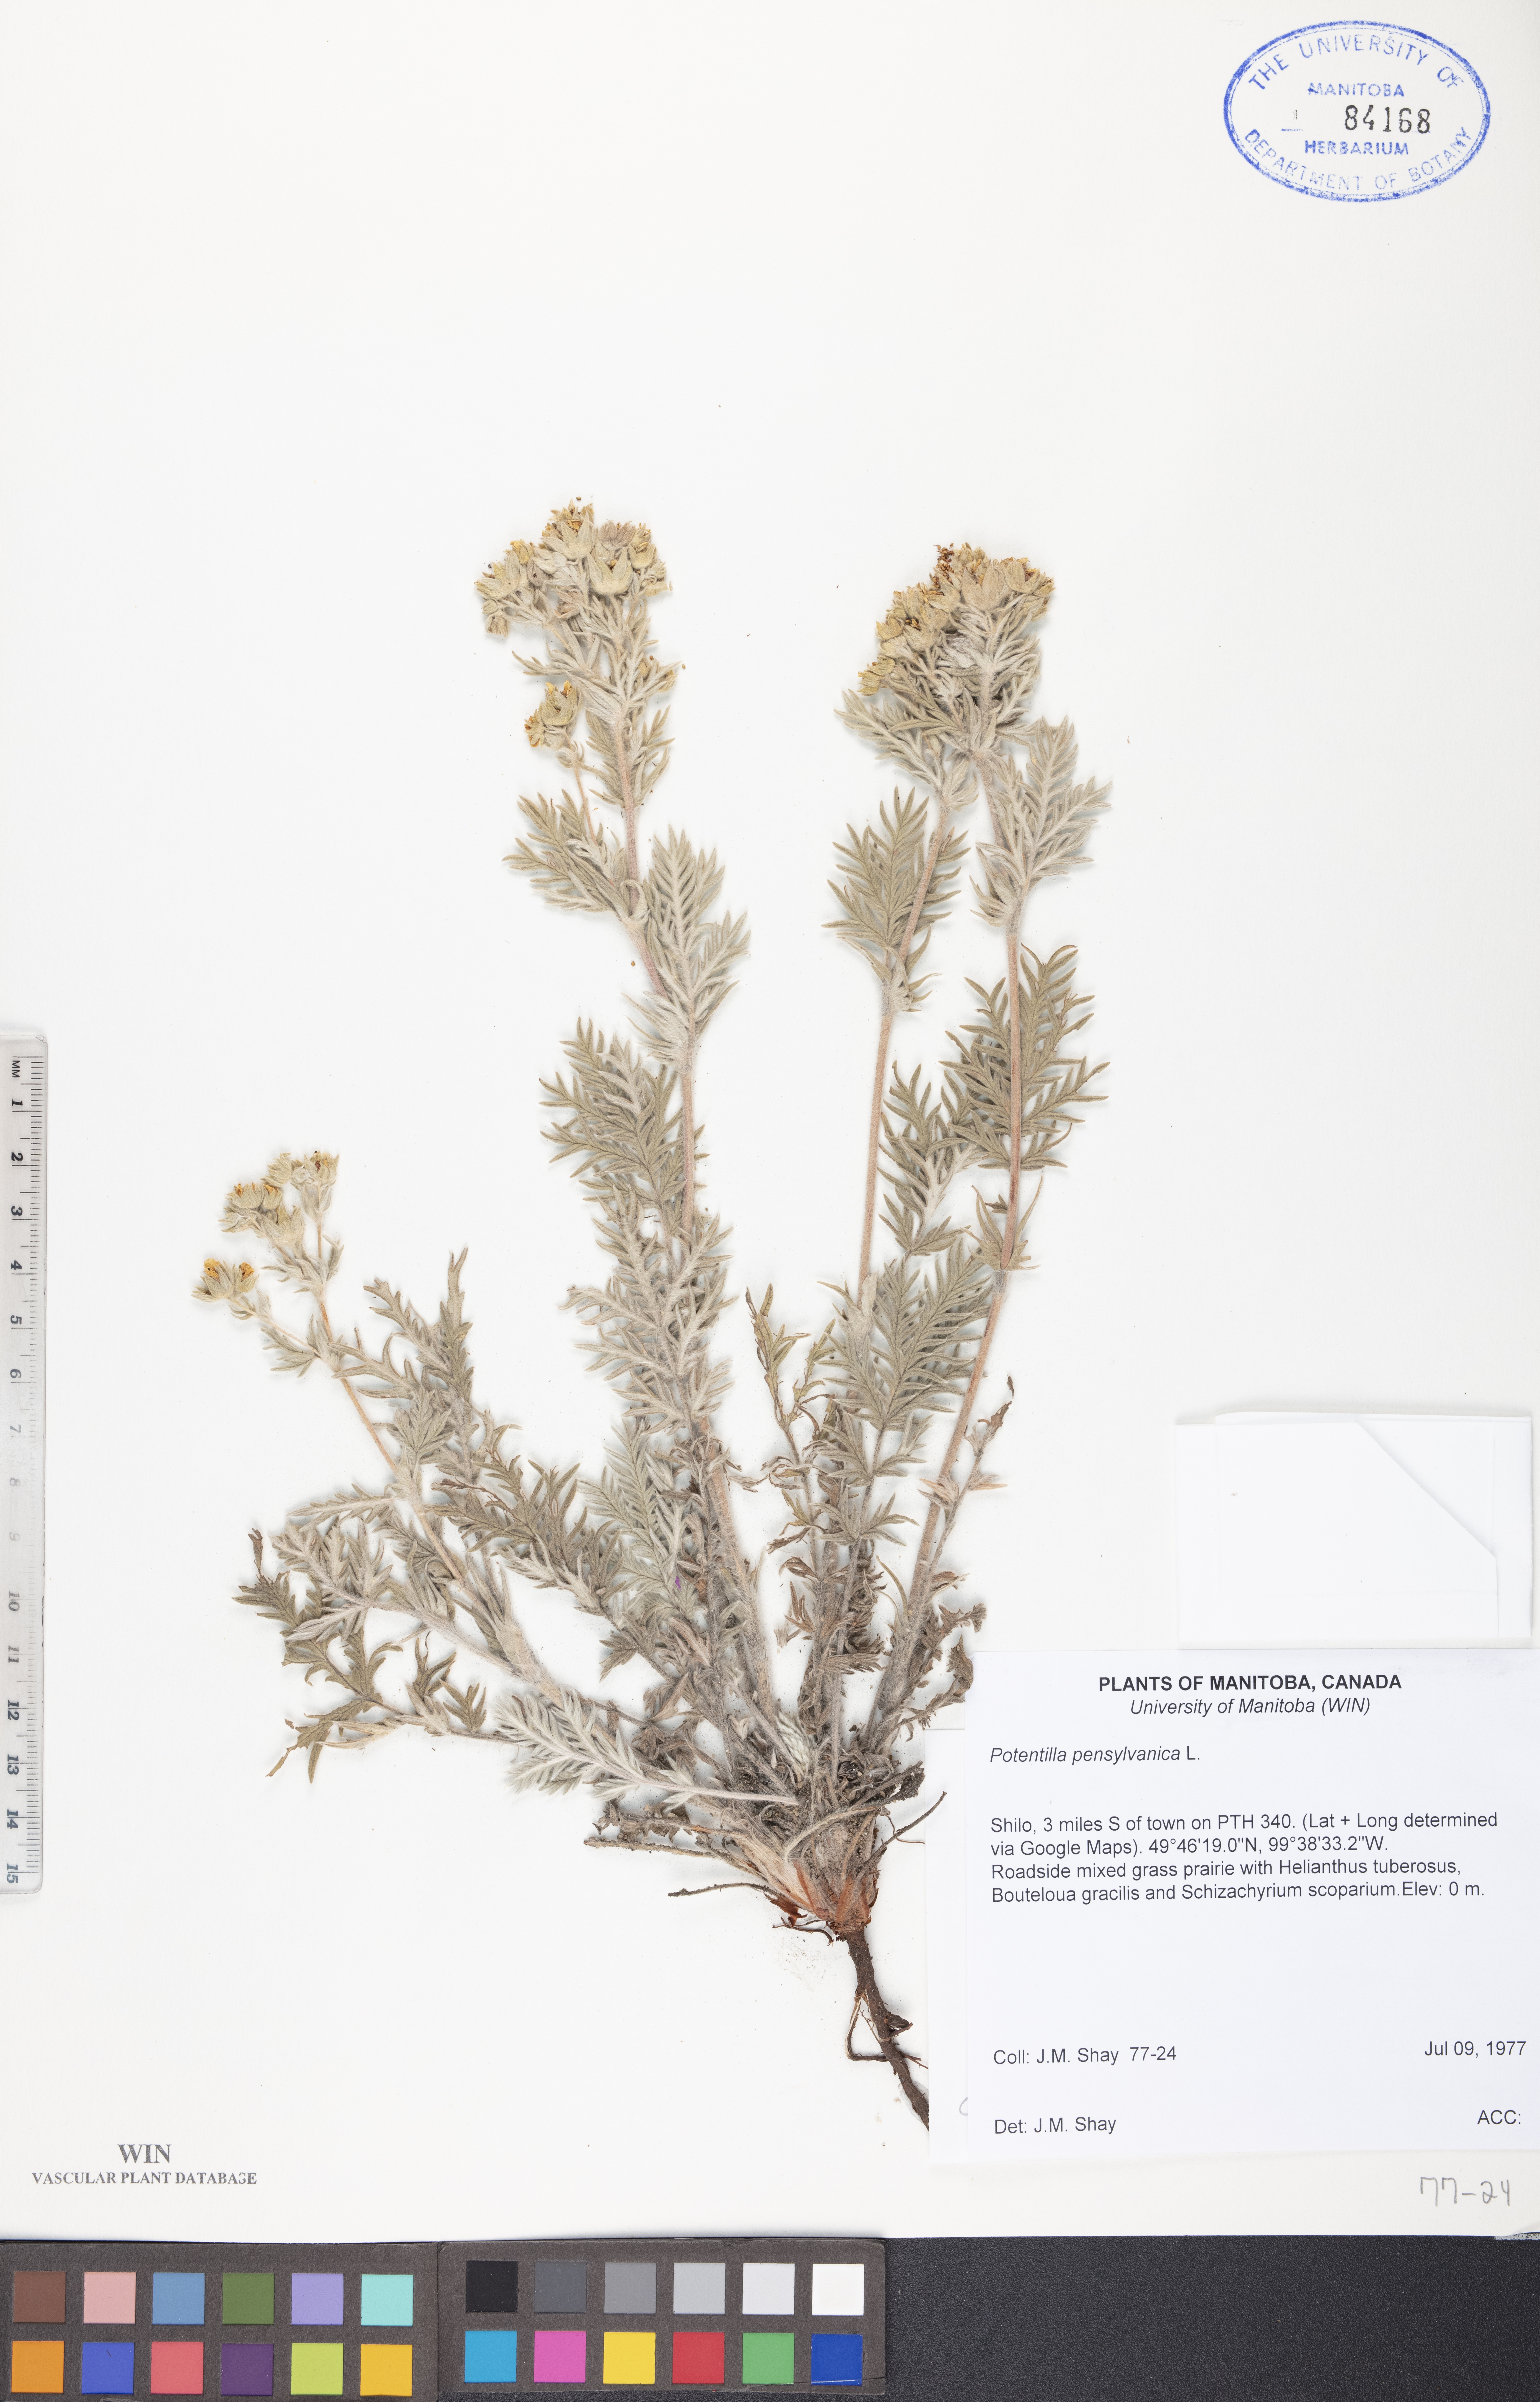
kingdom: Plantae
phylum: Tracheophyta
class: Magnoliopsida
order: Rosales
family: Rosaceae
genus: Potentilla
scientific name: Potentilla pensylvanica
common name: Pennsylvania cinquefoil
